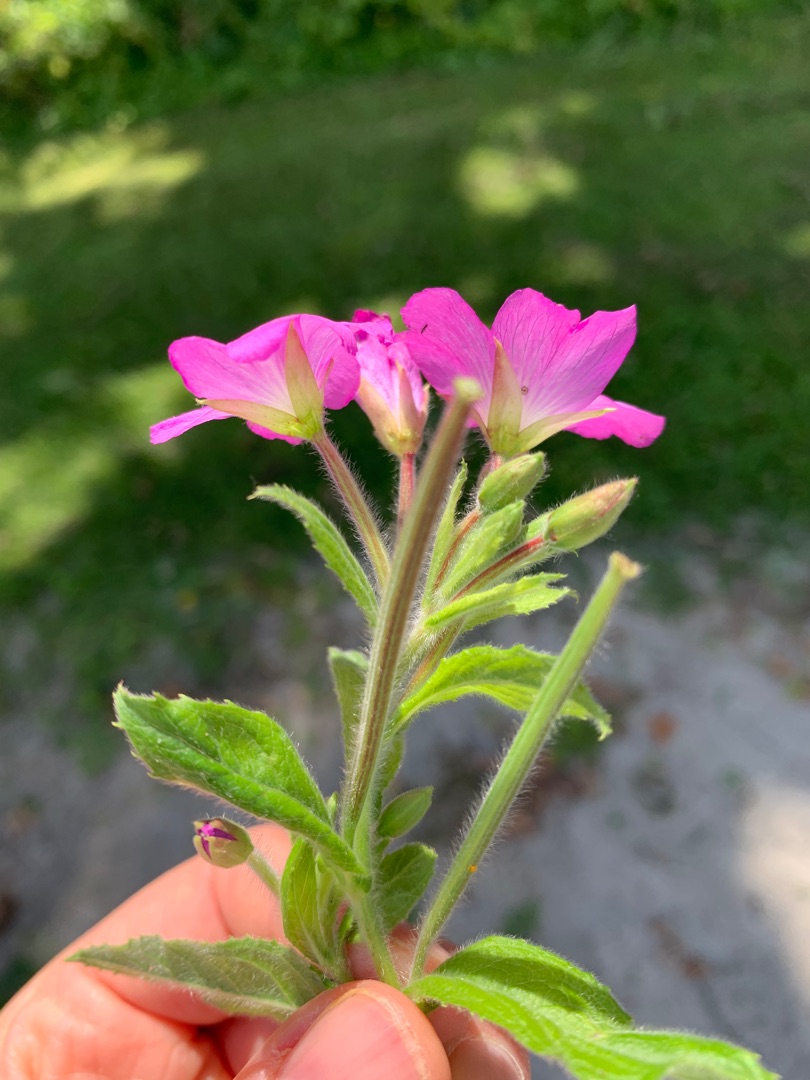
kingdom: Plantae
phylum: Tracheophyta
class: Magnoliopsida
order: Myrtales
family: Onagraceae
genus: Epilobium
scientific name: Epilobium hirsutum
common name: Lådden dueurt
